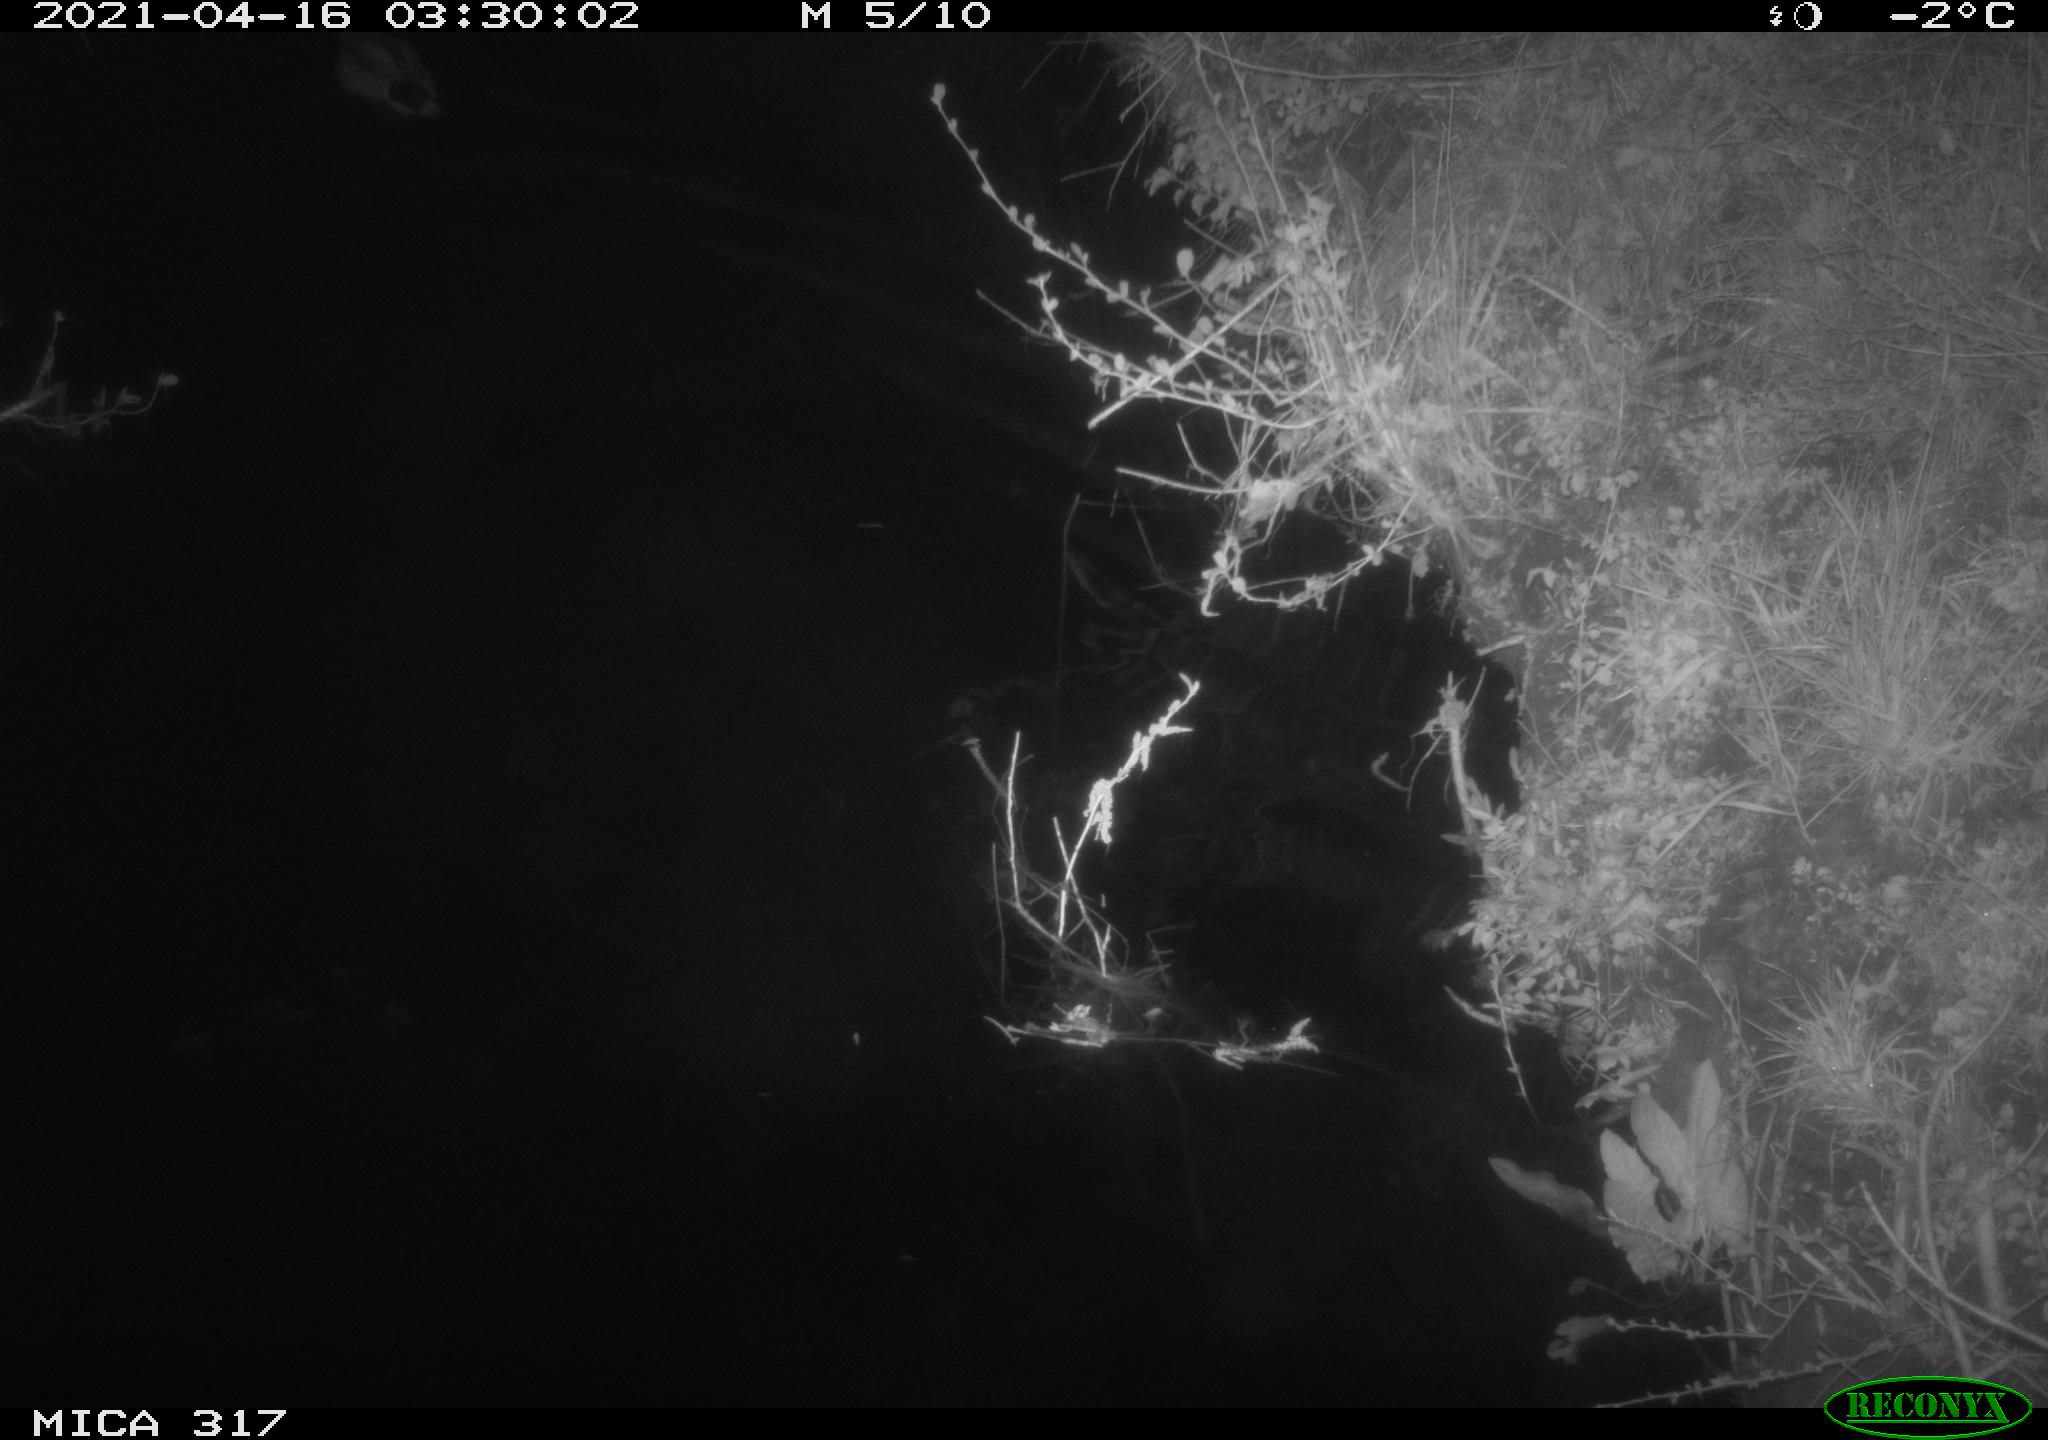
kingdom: Animalia
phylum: Chordata
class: Aves
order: Anseriformes
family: Anatidae
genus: Anas
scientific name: Anas platyrhynchos
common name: Mallard
